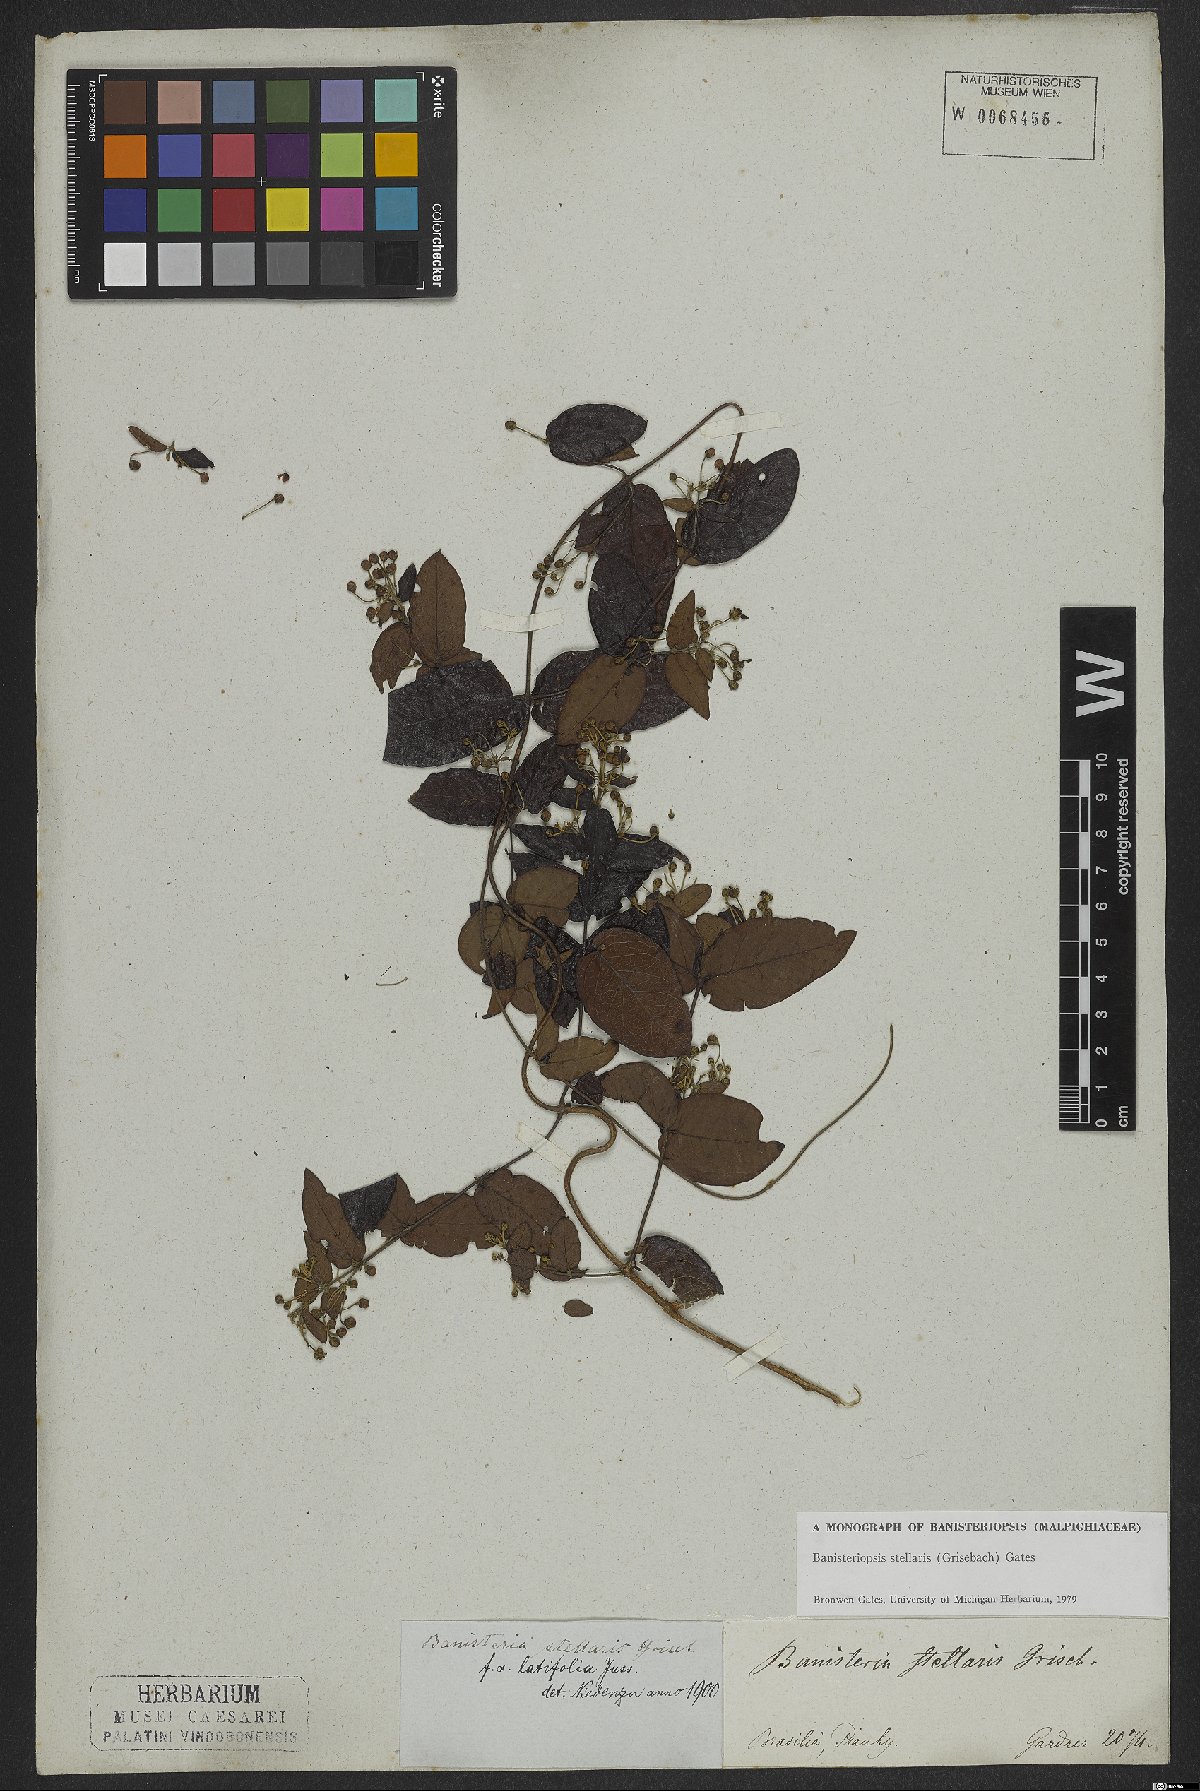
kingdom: Plantae
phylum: Tracheophyta
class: Magnoliopsida
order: Malpighiales
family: Malpighiaceae
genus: Banisteriopsis
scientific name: Banisteriopsis stellaris
